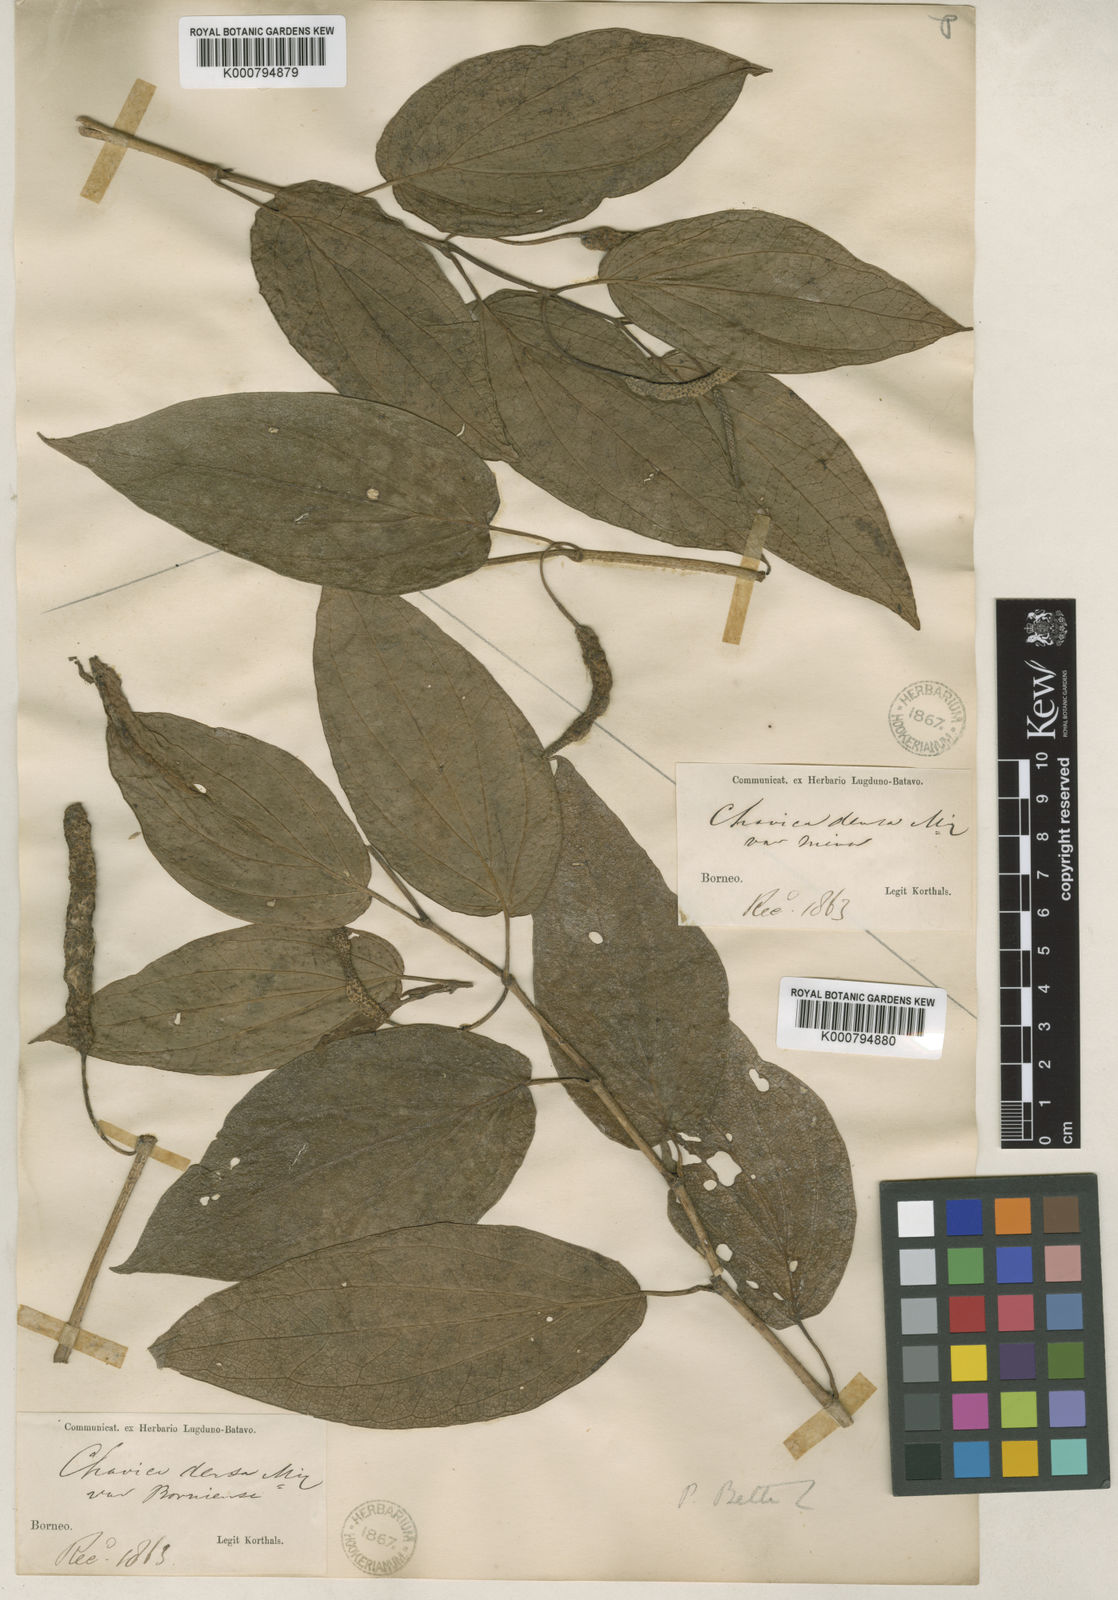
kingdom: Plantae
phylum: Tracheophyta
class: Magnoliopsida
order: Piperales
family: Piperaceae
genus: Piper
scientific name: Piper betle
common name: Betel pepper
